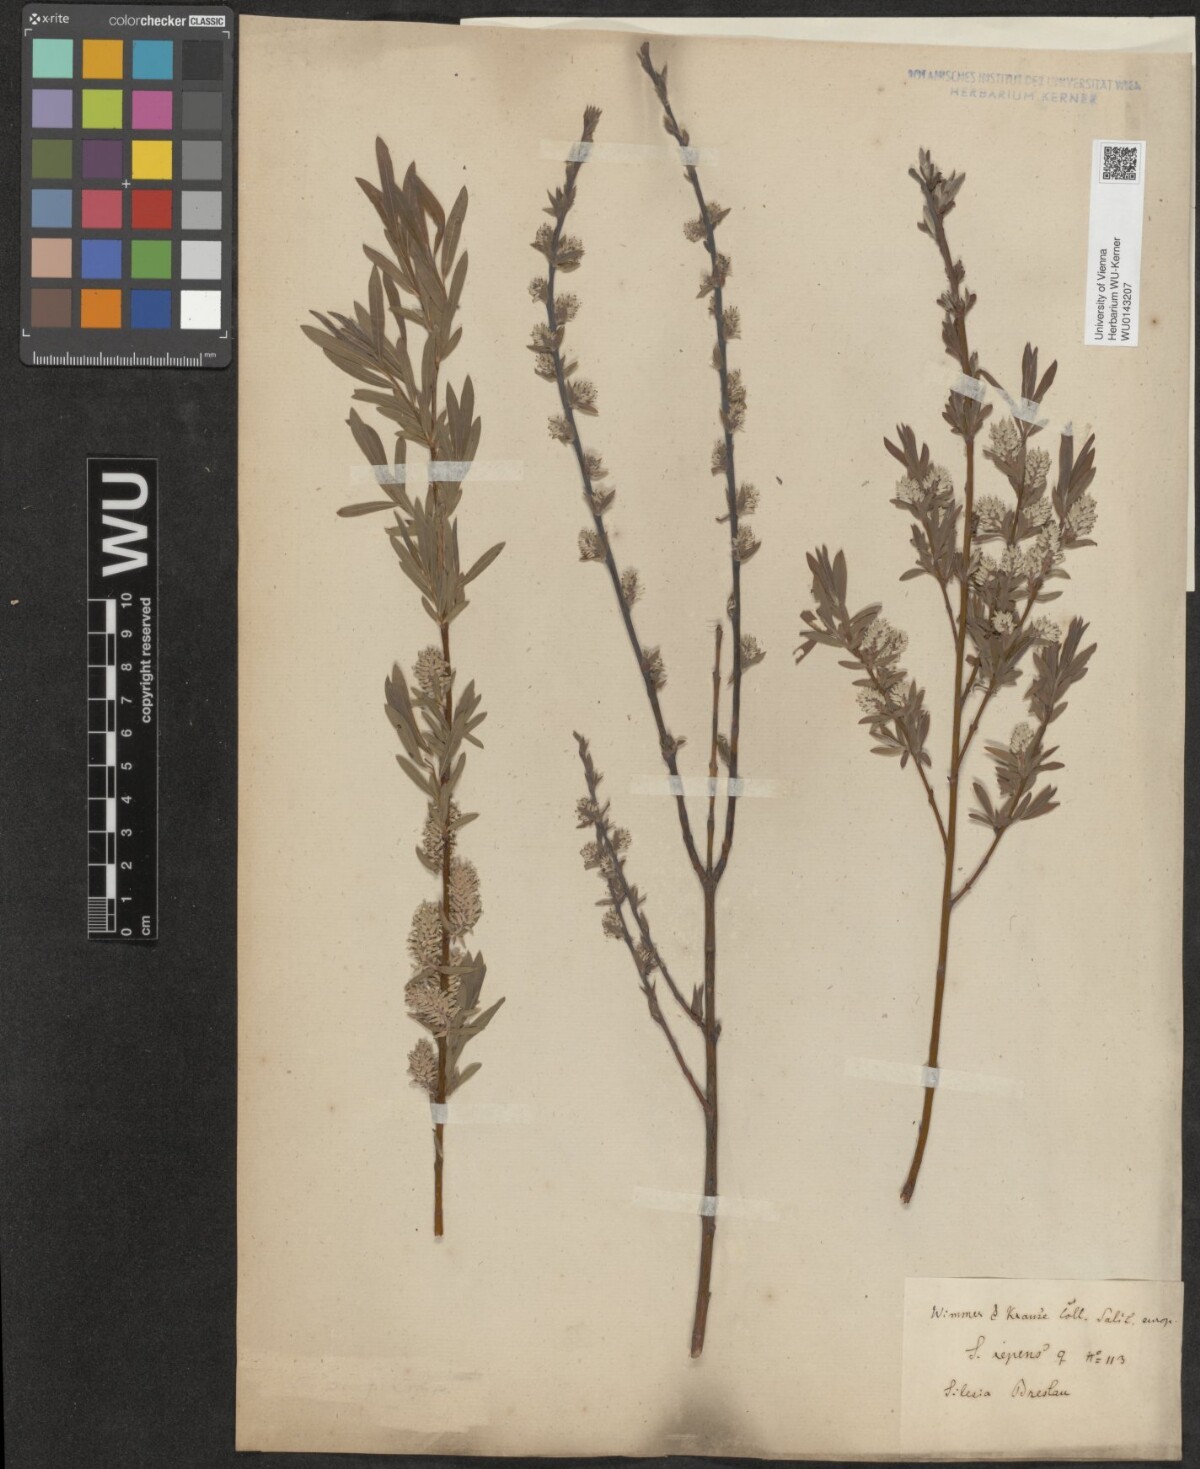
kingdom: Plantae
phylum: Tracheophyta
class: Magnoliopsida
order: Malpighiales
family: Salicaceae
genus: Salix
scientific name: Salix repens
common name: Creeping willow
